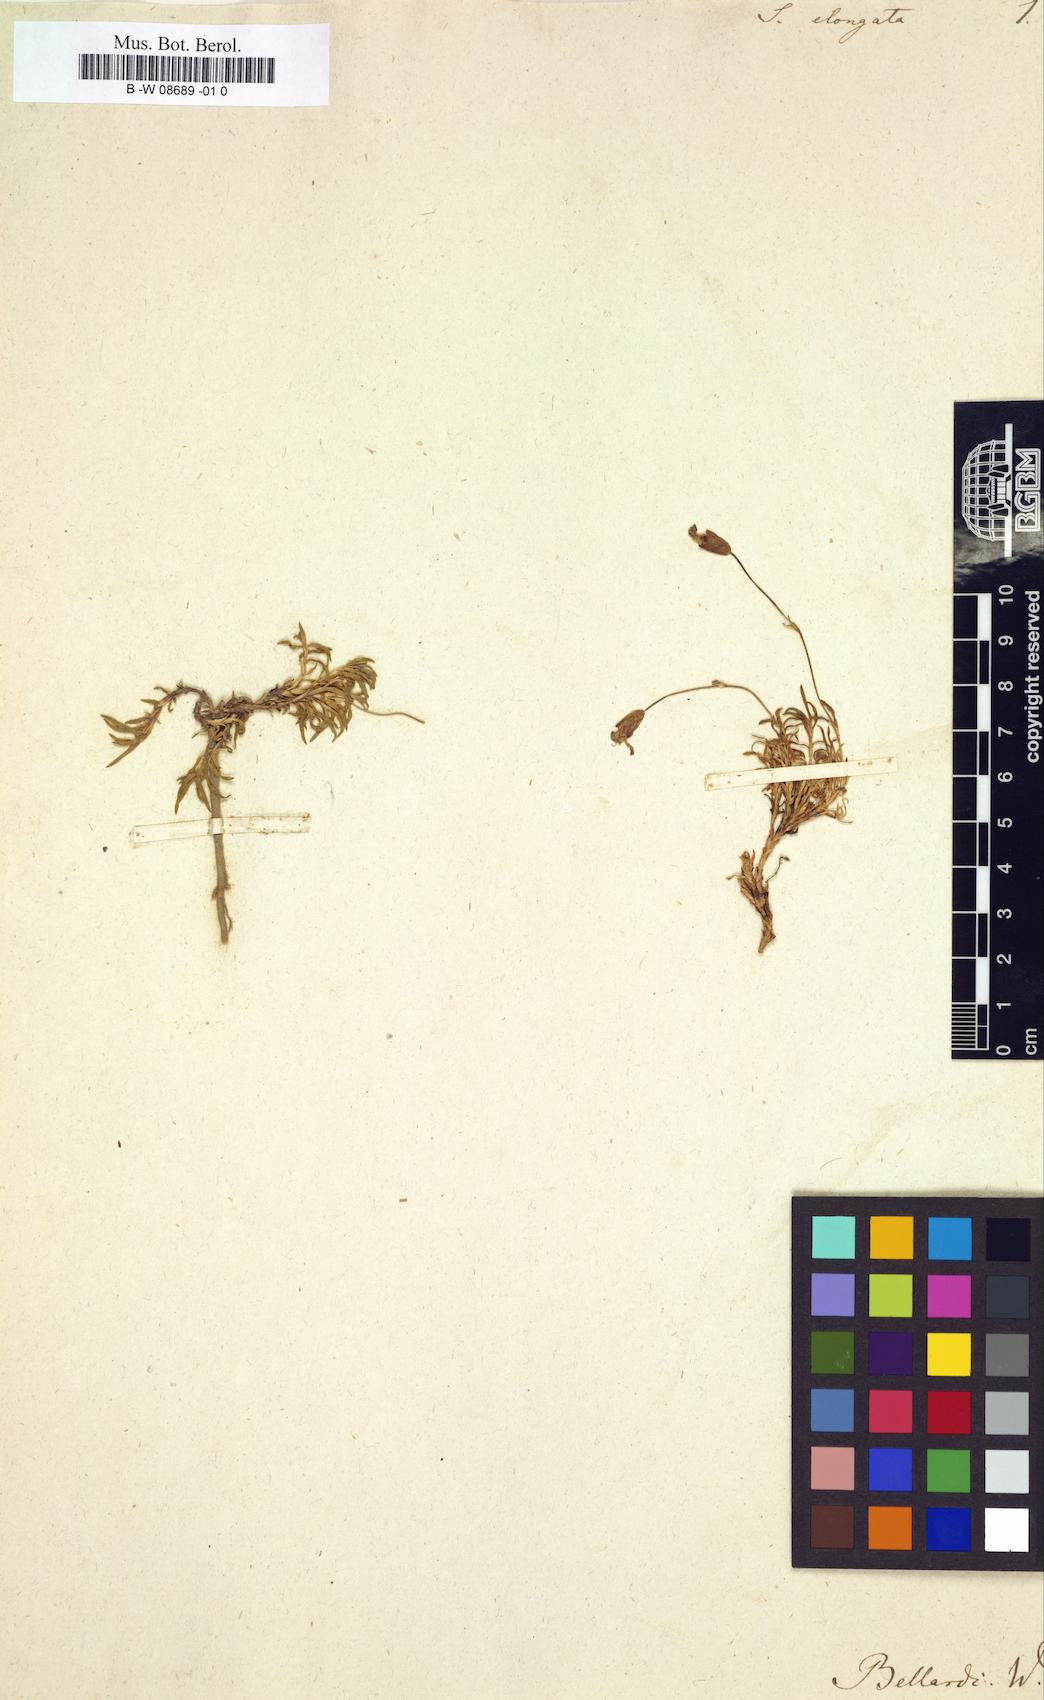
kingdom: Plantae
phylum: Tracheophyta
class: Magnoliopsida
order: Caryophyllales
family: Caryophyllaceae
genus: Silene
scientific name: Silene acaulis
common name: Moss campion
